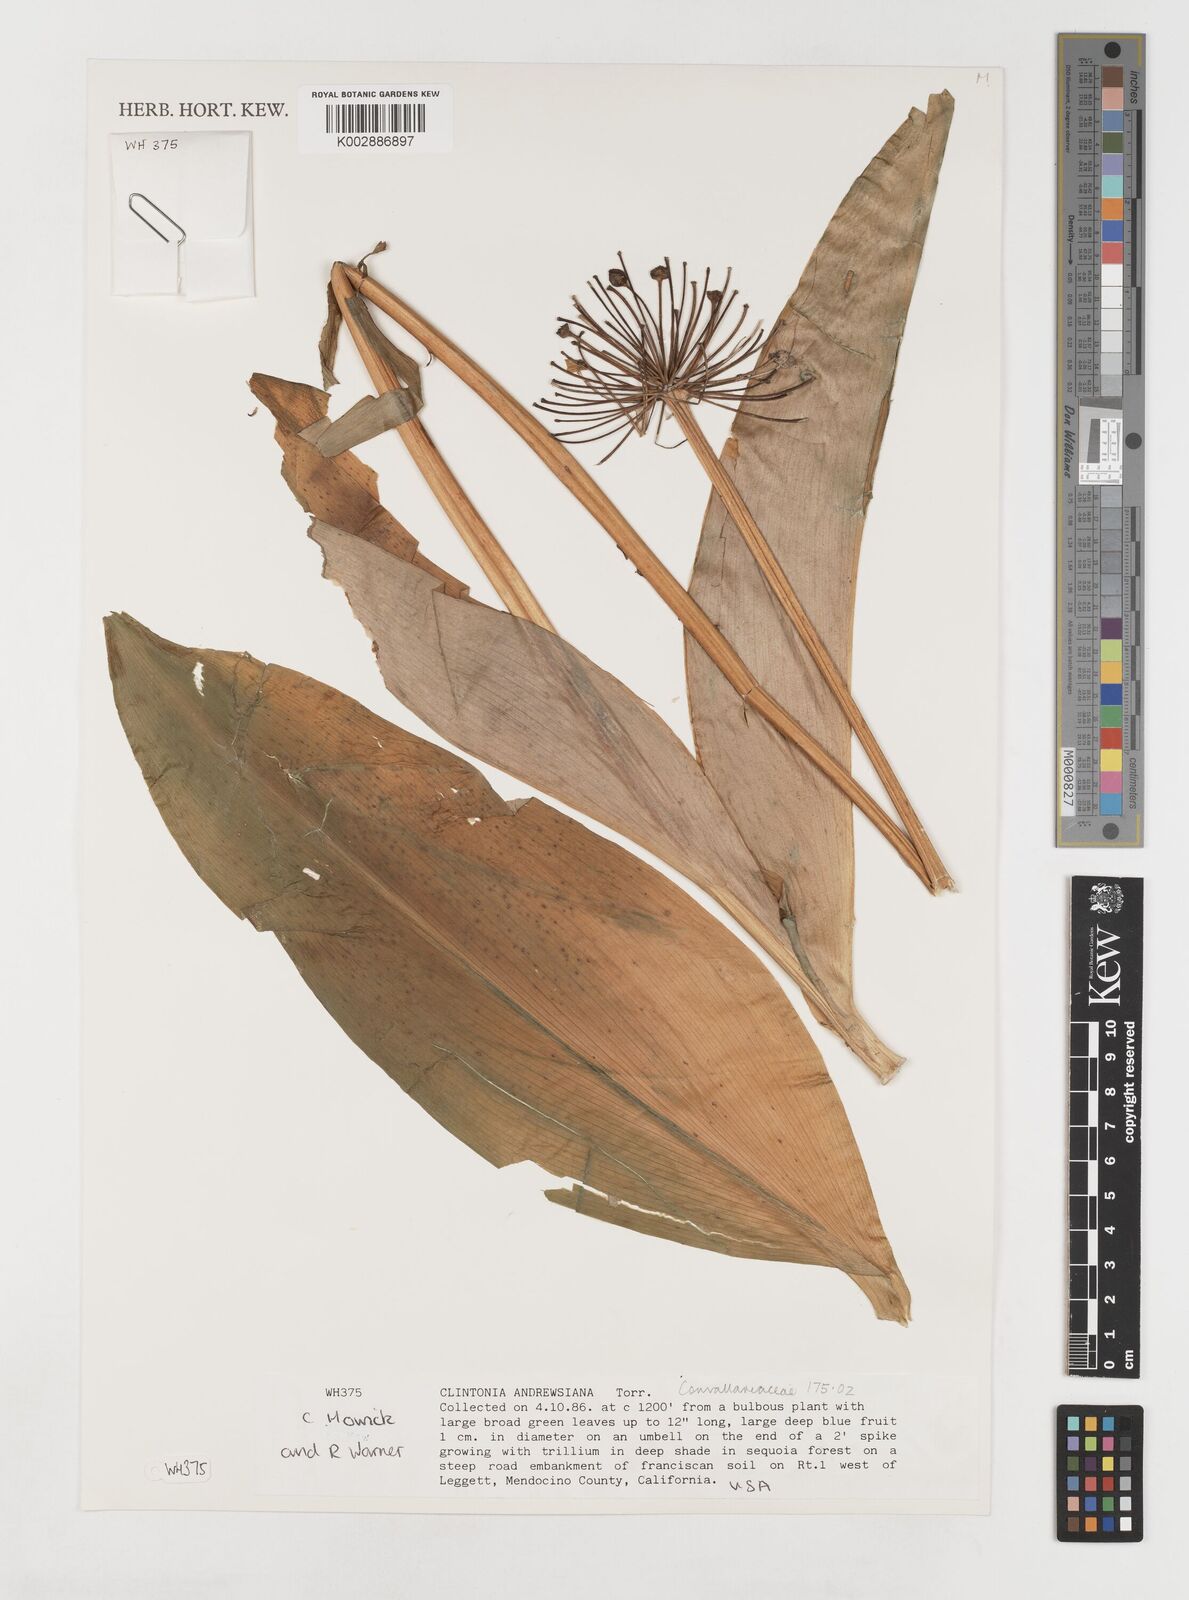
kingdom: Plantae
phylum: Tracheophyta
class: Liliopsida
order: Liliales
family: Liliaceae
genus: Clintonia
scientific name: Clintonia andrewsiana
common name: Red clintonia
